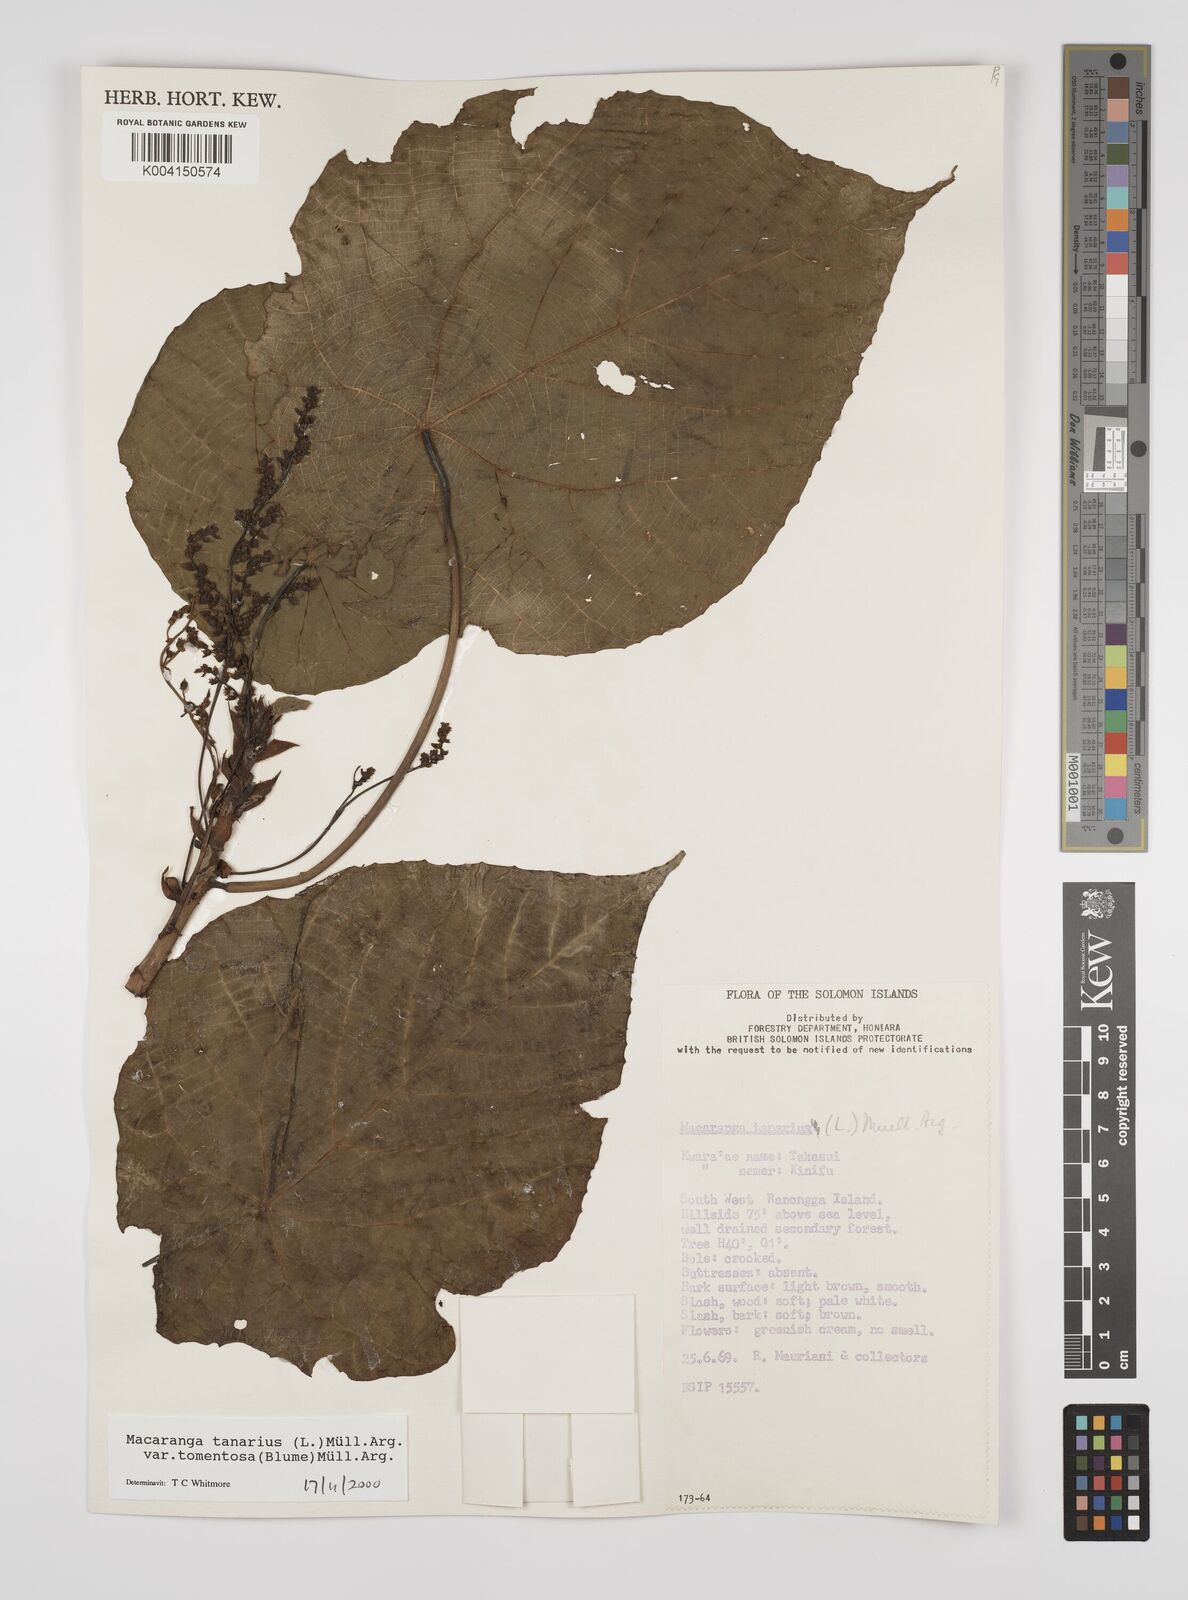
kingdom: Plantae
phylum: Tracheophyta
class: Magnoliopsida
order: Malpighiales
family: Euphorbiaceae
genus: Macaranga
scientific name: Macaranga tanarius
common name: Parasol leaf tree
